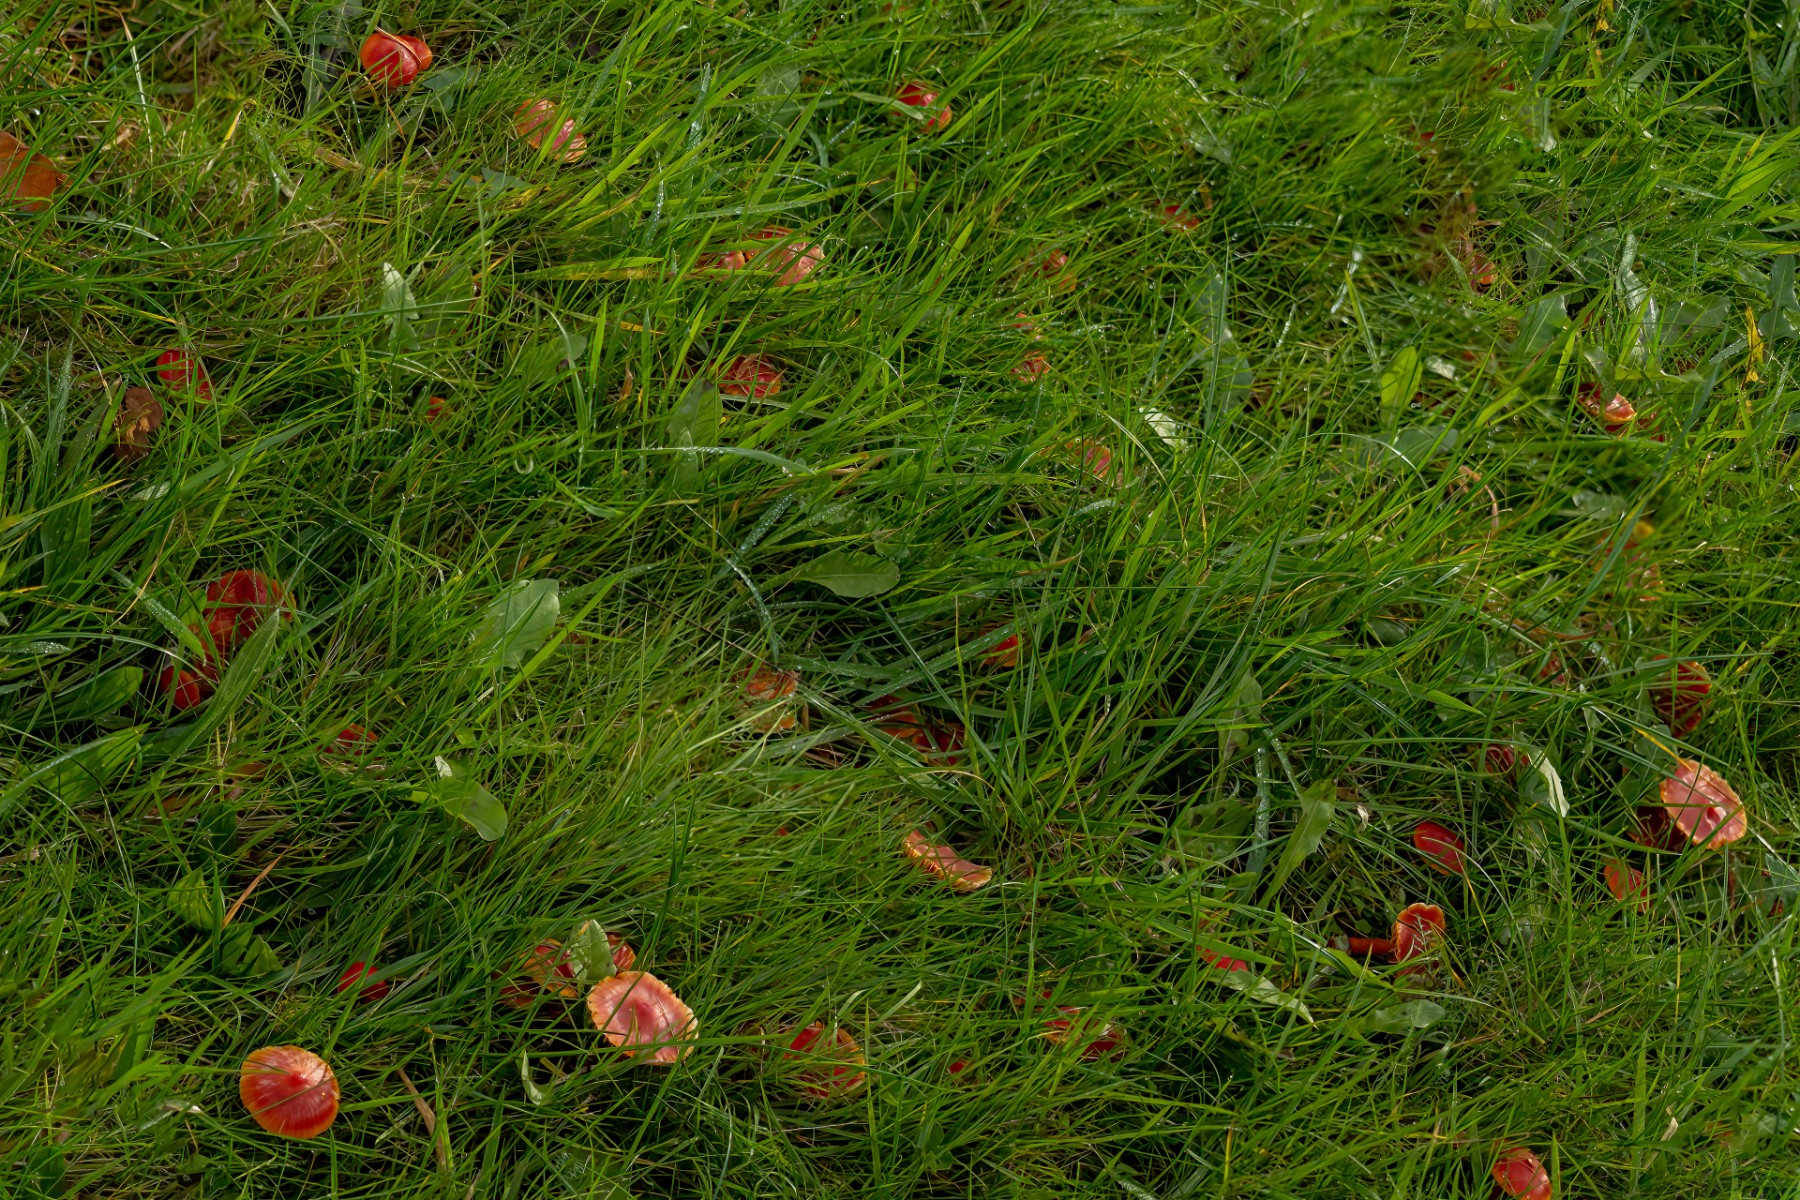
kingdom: Fungi
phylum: Basidiomycota
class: Agaricomycetes
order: Agaricales
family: Hygrophoraceae
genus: Hygrocybe
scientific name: Hygrocybe coccinea
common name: cinnober-vokshat
